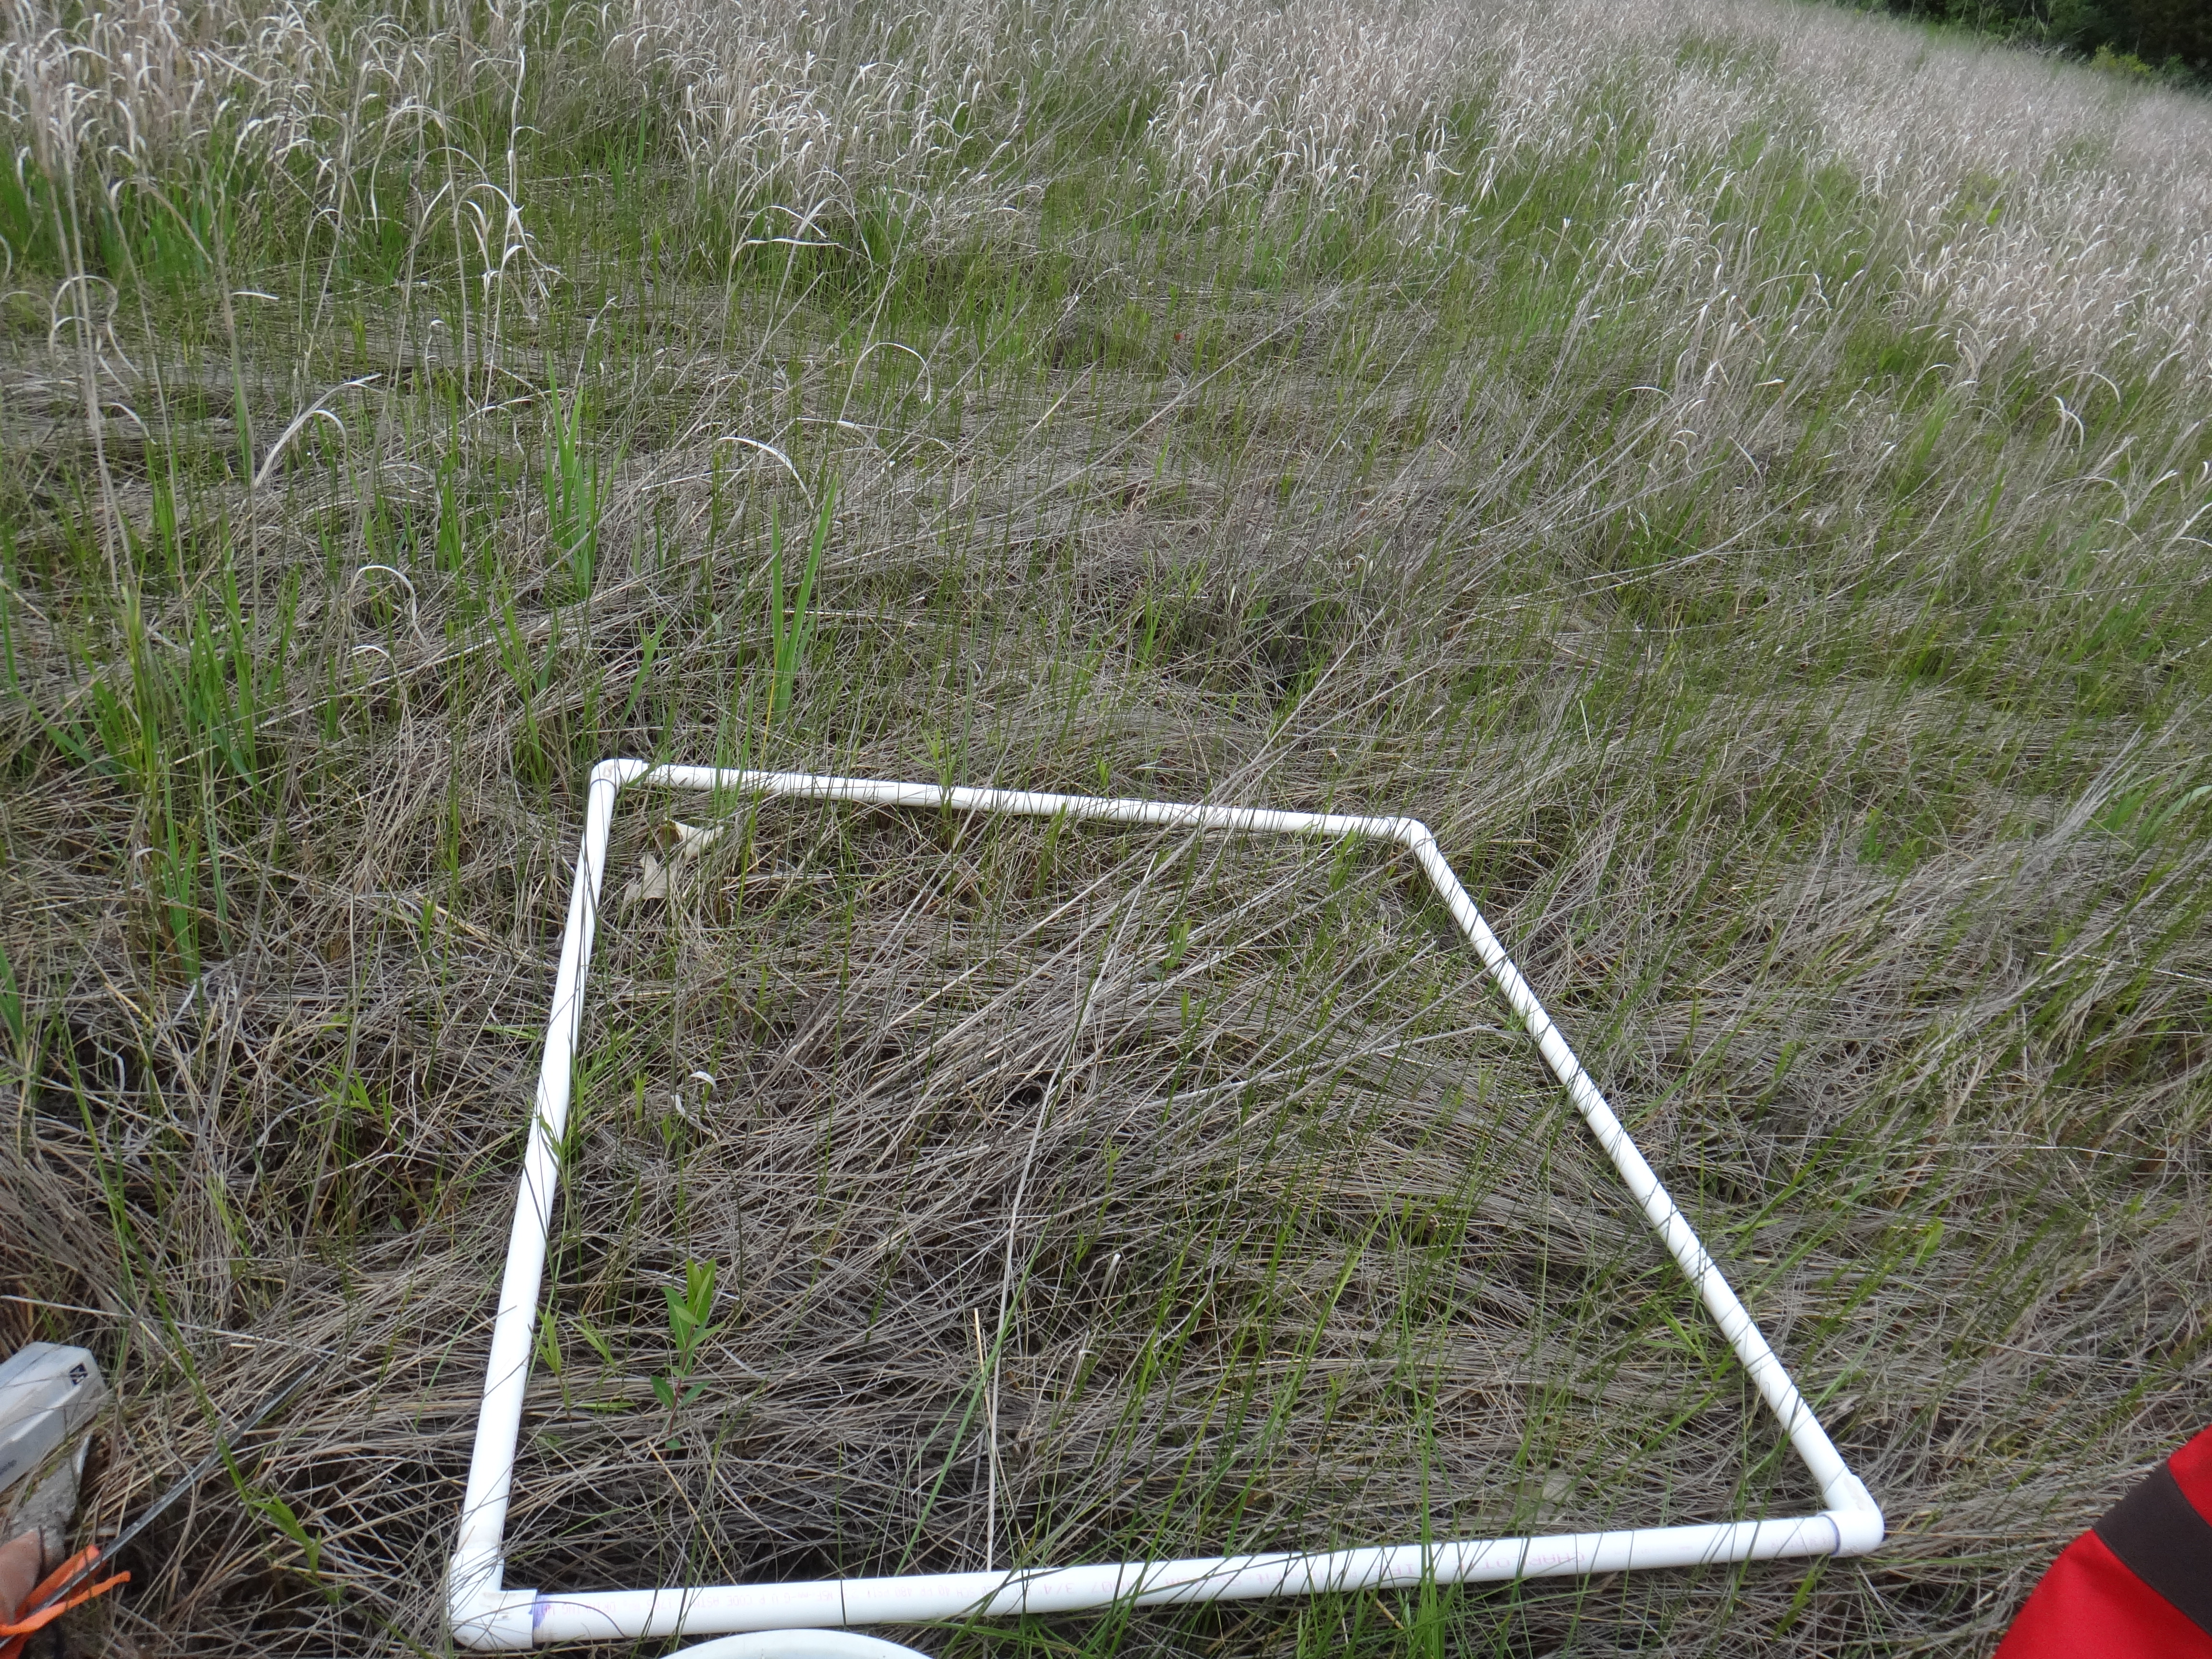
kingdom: Plantae
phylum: Tracheophyta
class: Liliopsida
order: Asparagales
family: Iridaceae
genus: Iris
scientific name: Iris virginica
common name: Southern blue flag
